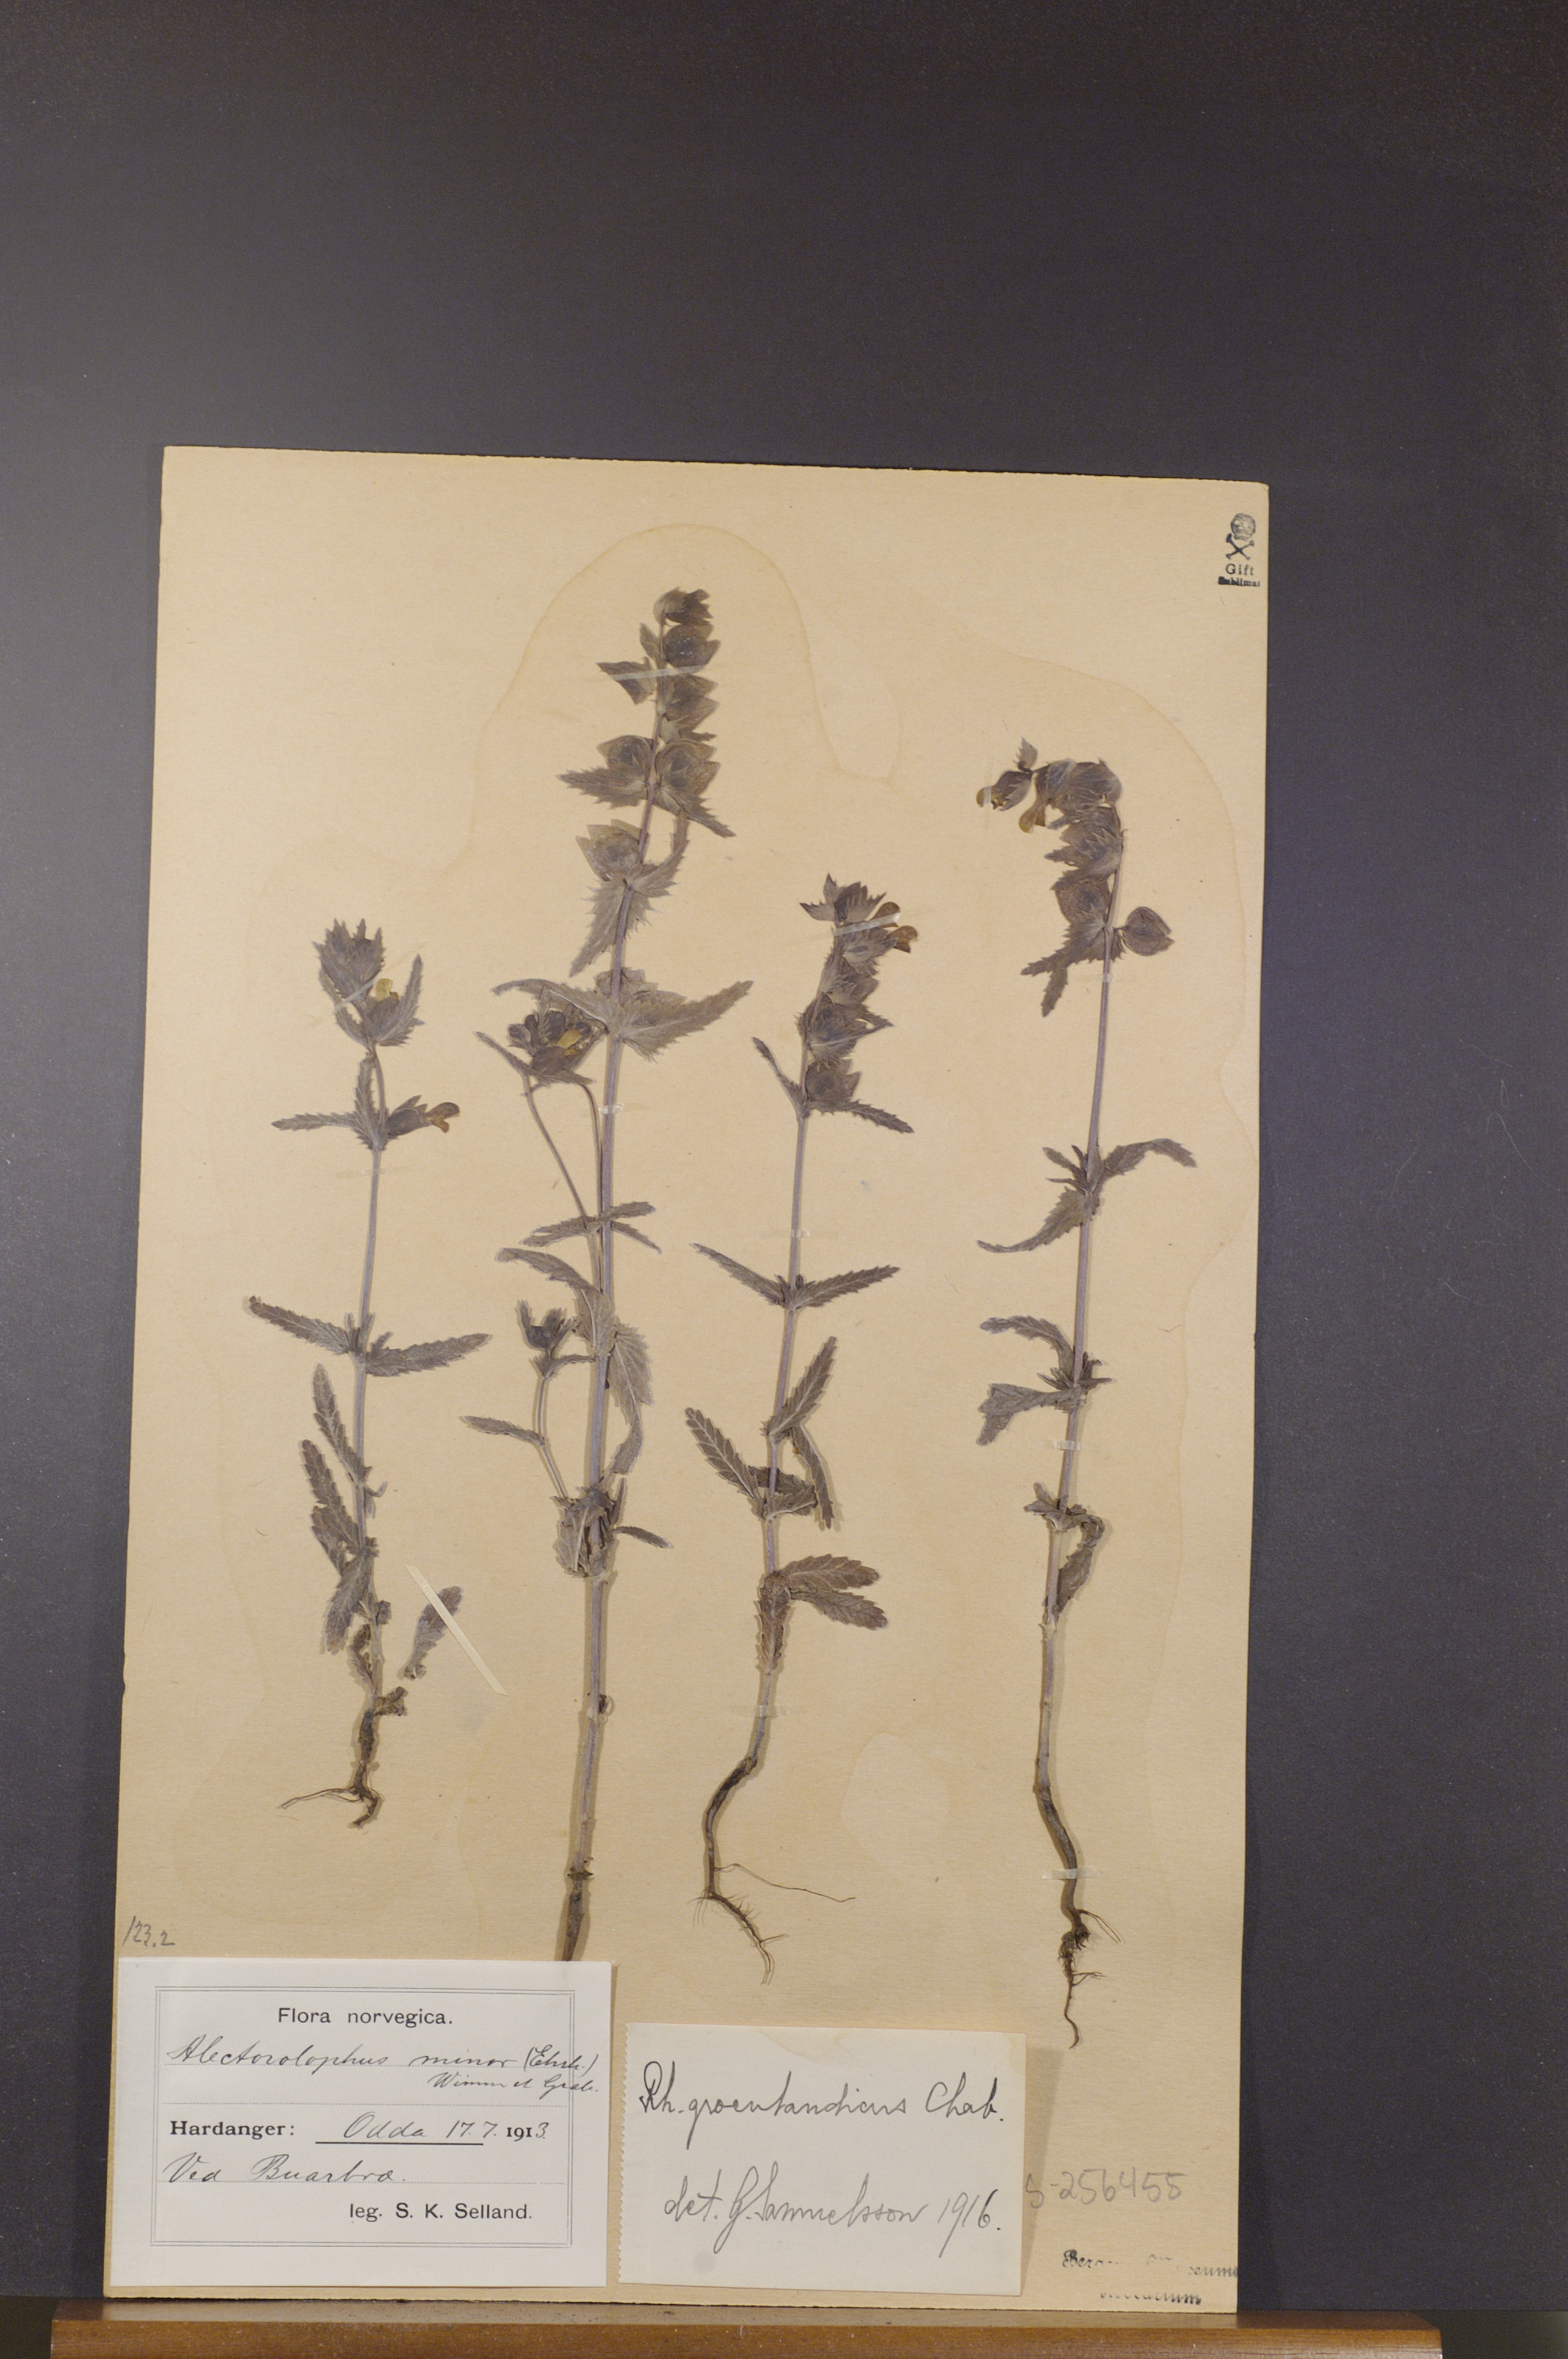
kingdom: Plantae
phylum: Tracheophyta
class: Magnoliopsida
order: Lamiales
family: Orobanchaceae
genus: Rhinanthus
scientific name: Rhinanthus groenlandicus
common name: Little yellow rattle
